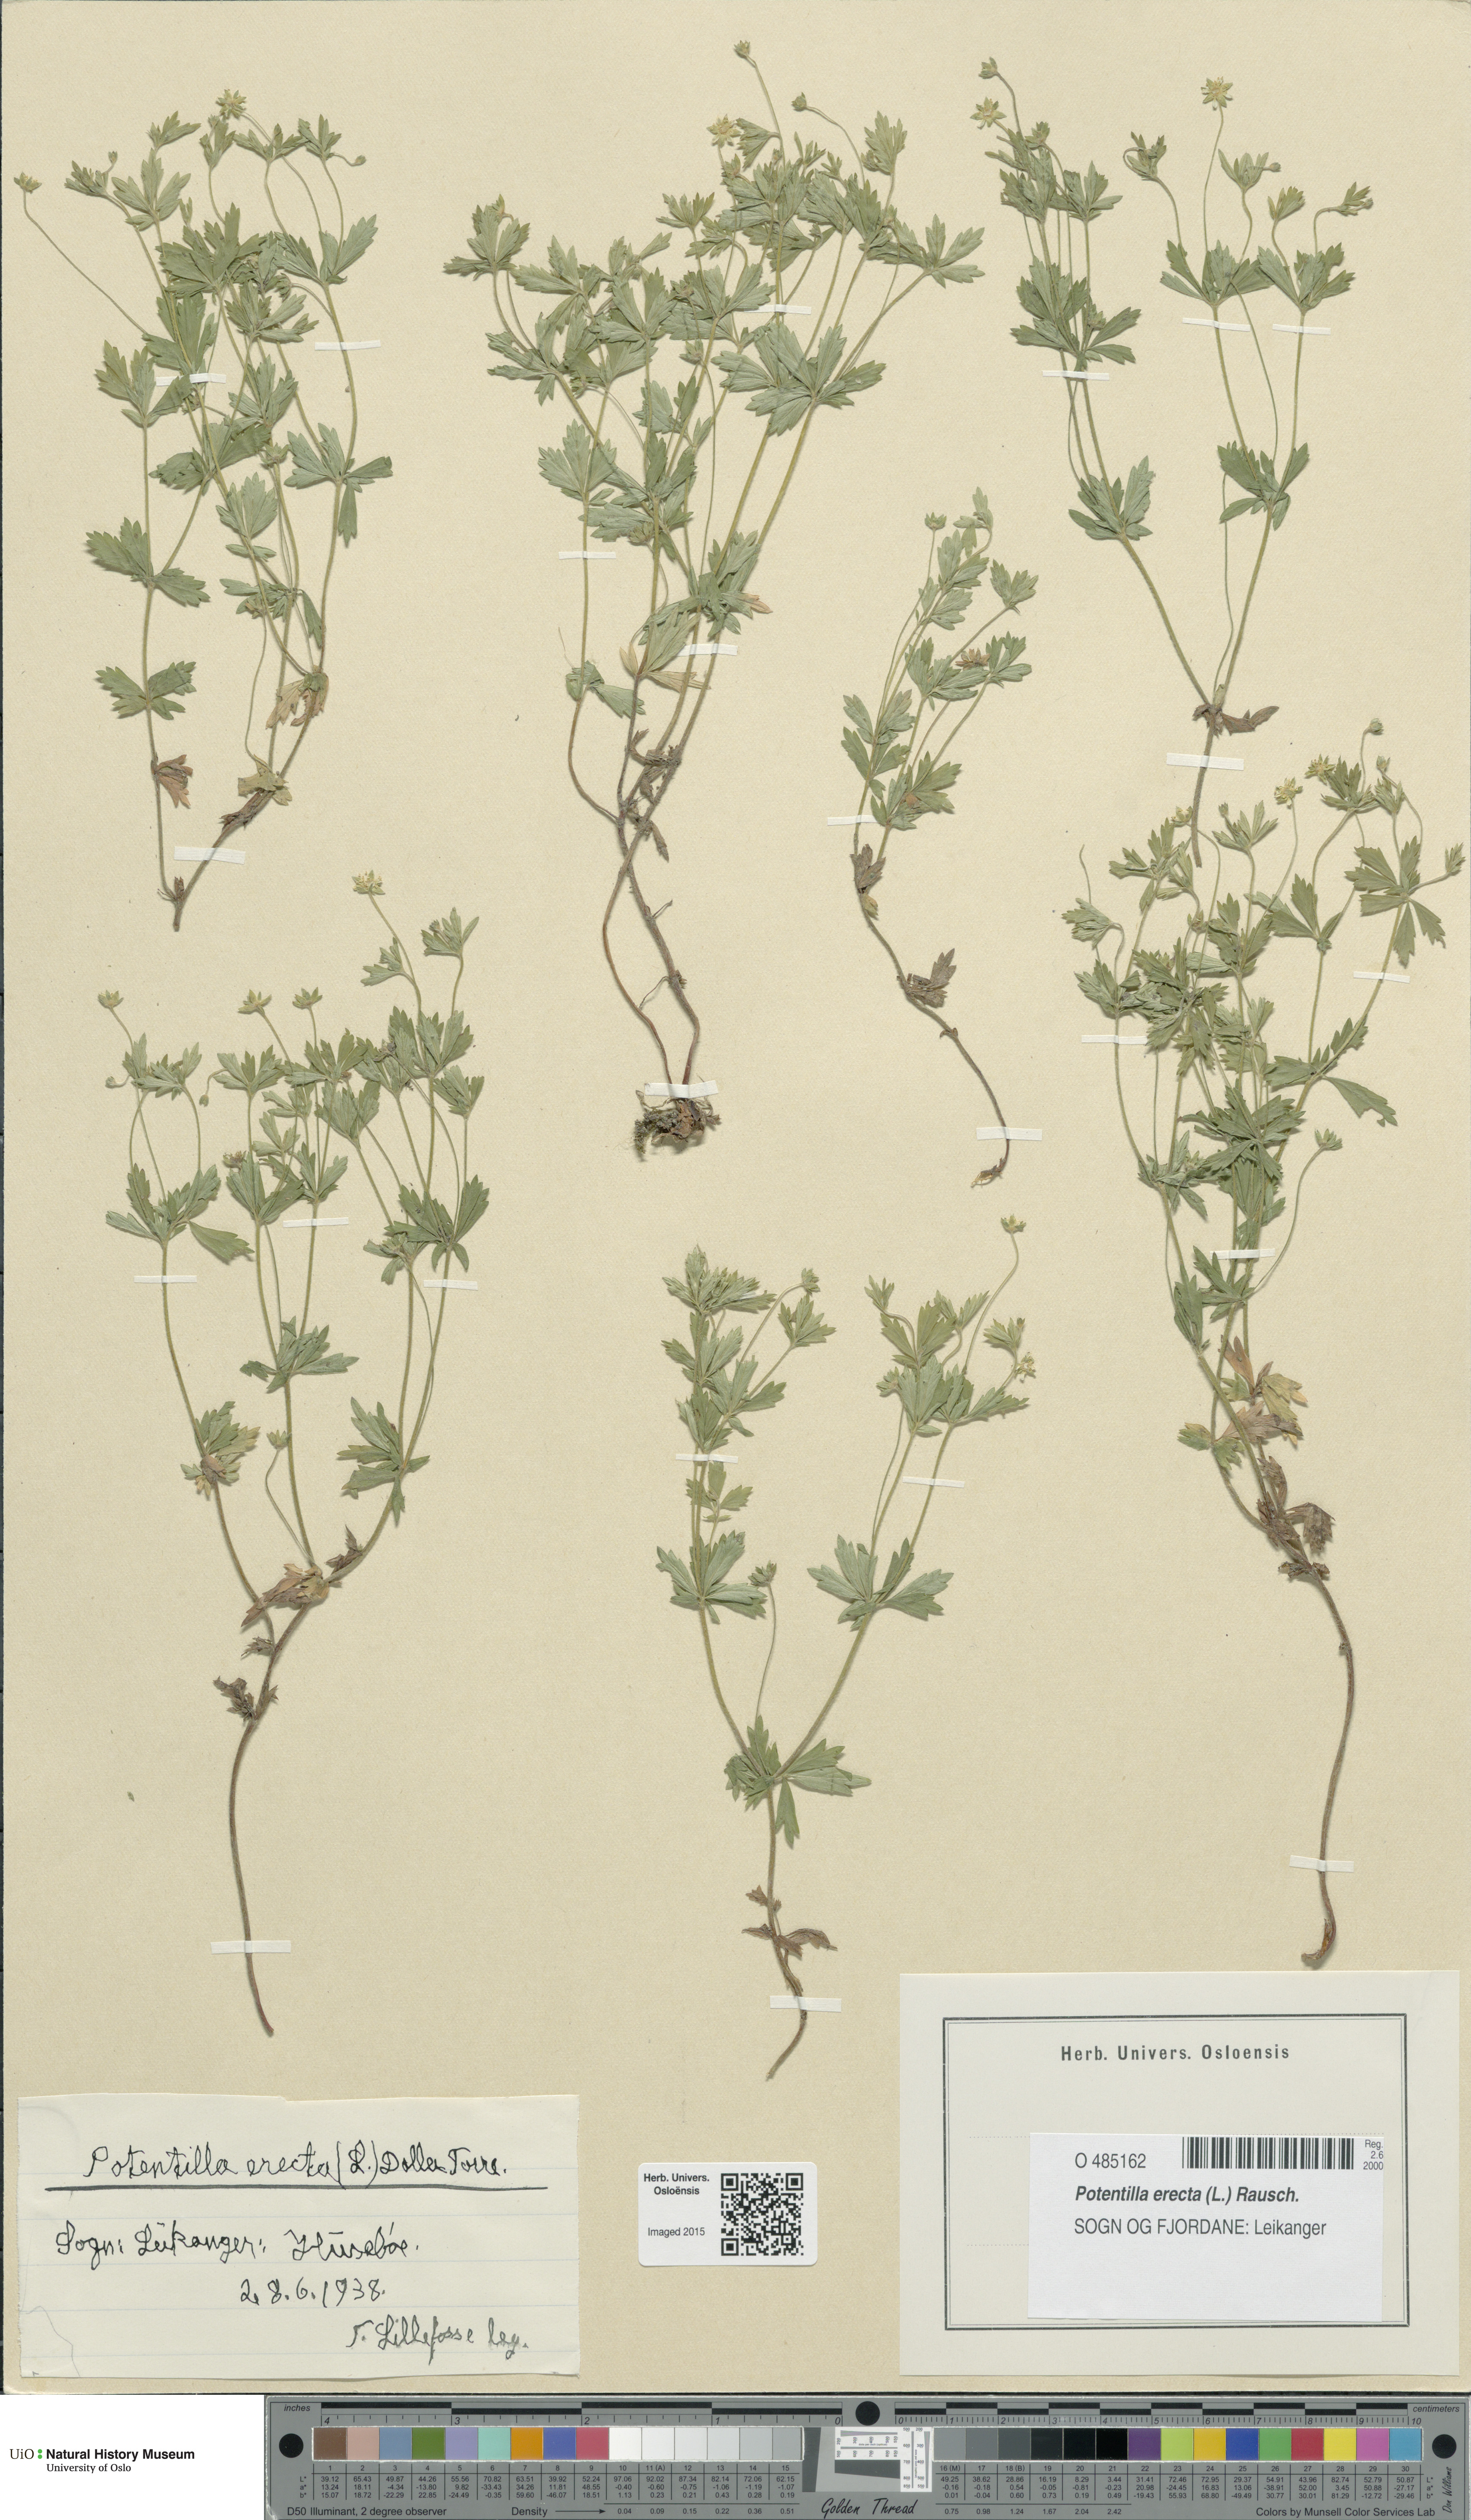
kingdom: Plantae
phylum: Tracheophyta
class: Magnoliopsida
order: Rosales
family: Rosaceae
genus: Potentilla
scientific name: Potentilla erecta
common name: Tormentil
